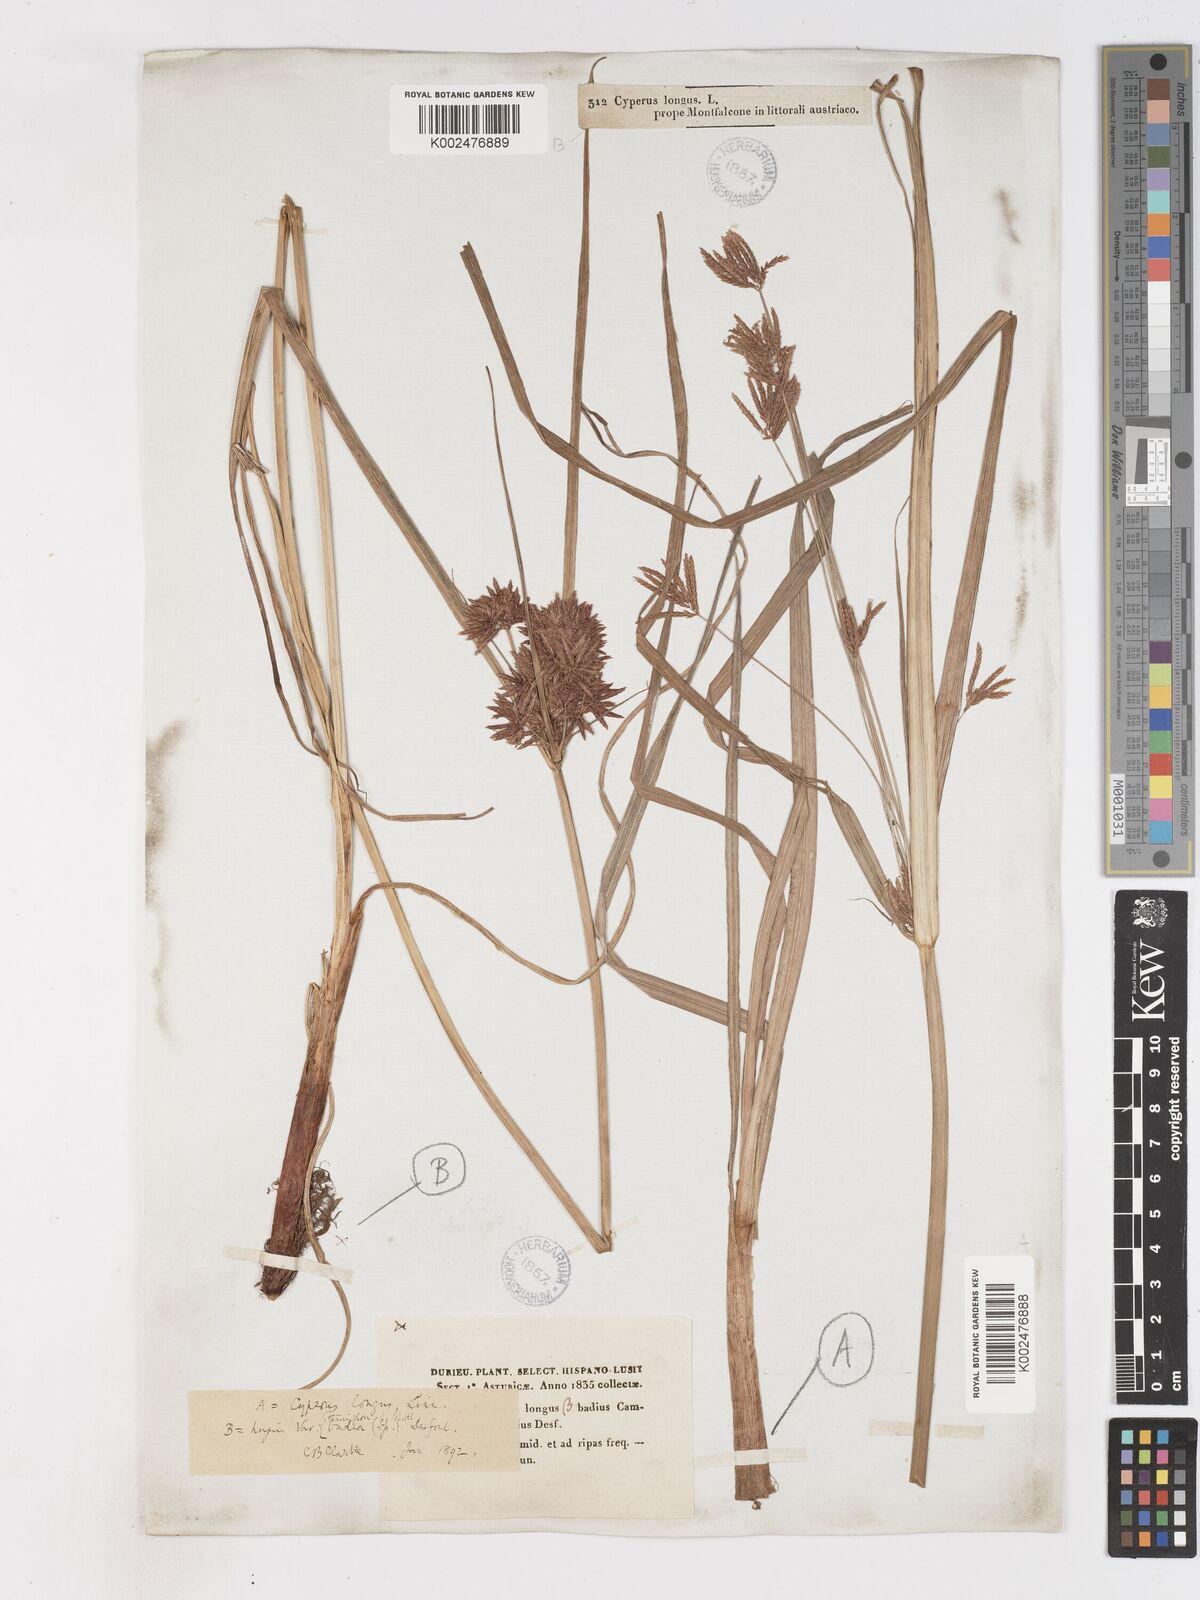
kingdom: Plantae
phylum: Tracheophyta
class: Liliopsida
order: Poales
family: Cyperaceae
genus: Cyperus
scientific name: Cyperus longus
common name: Galingale
